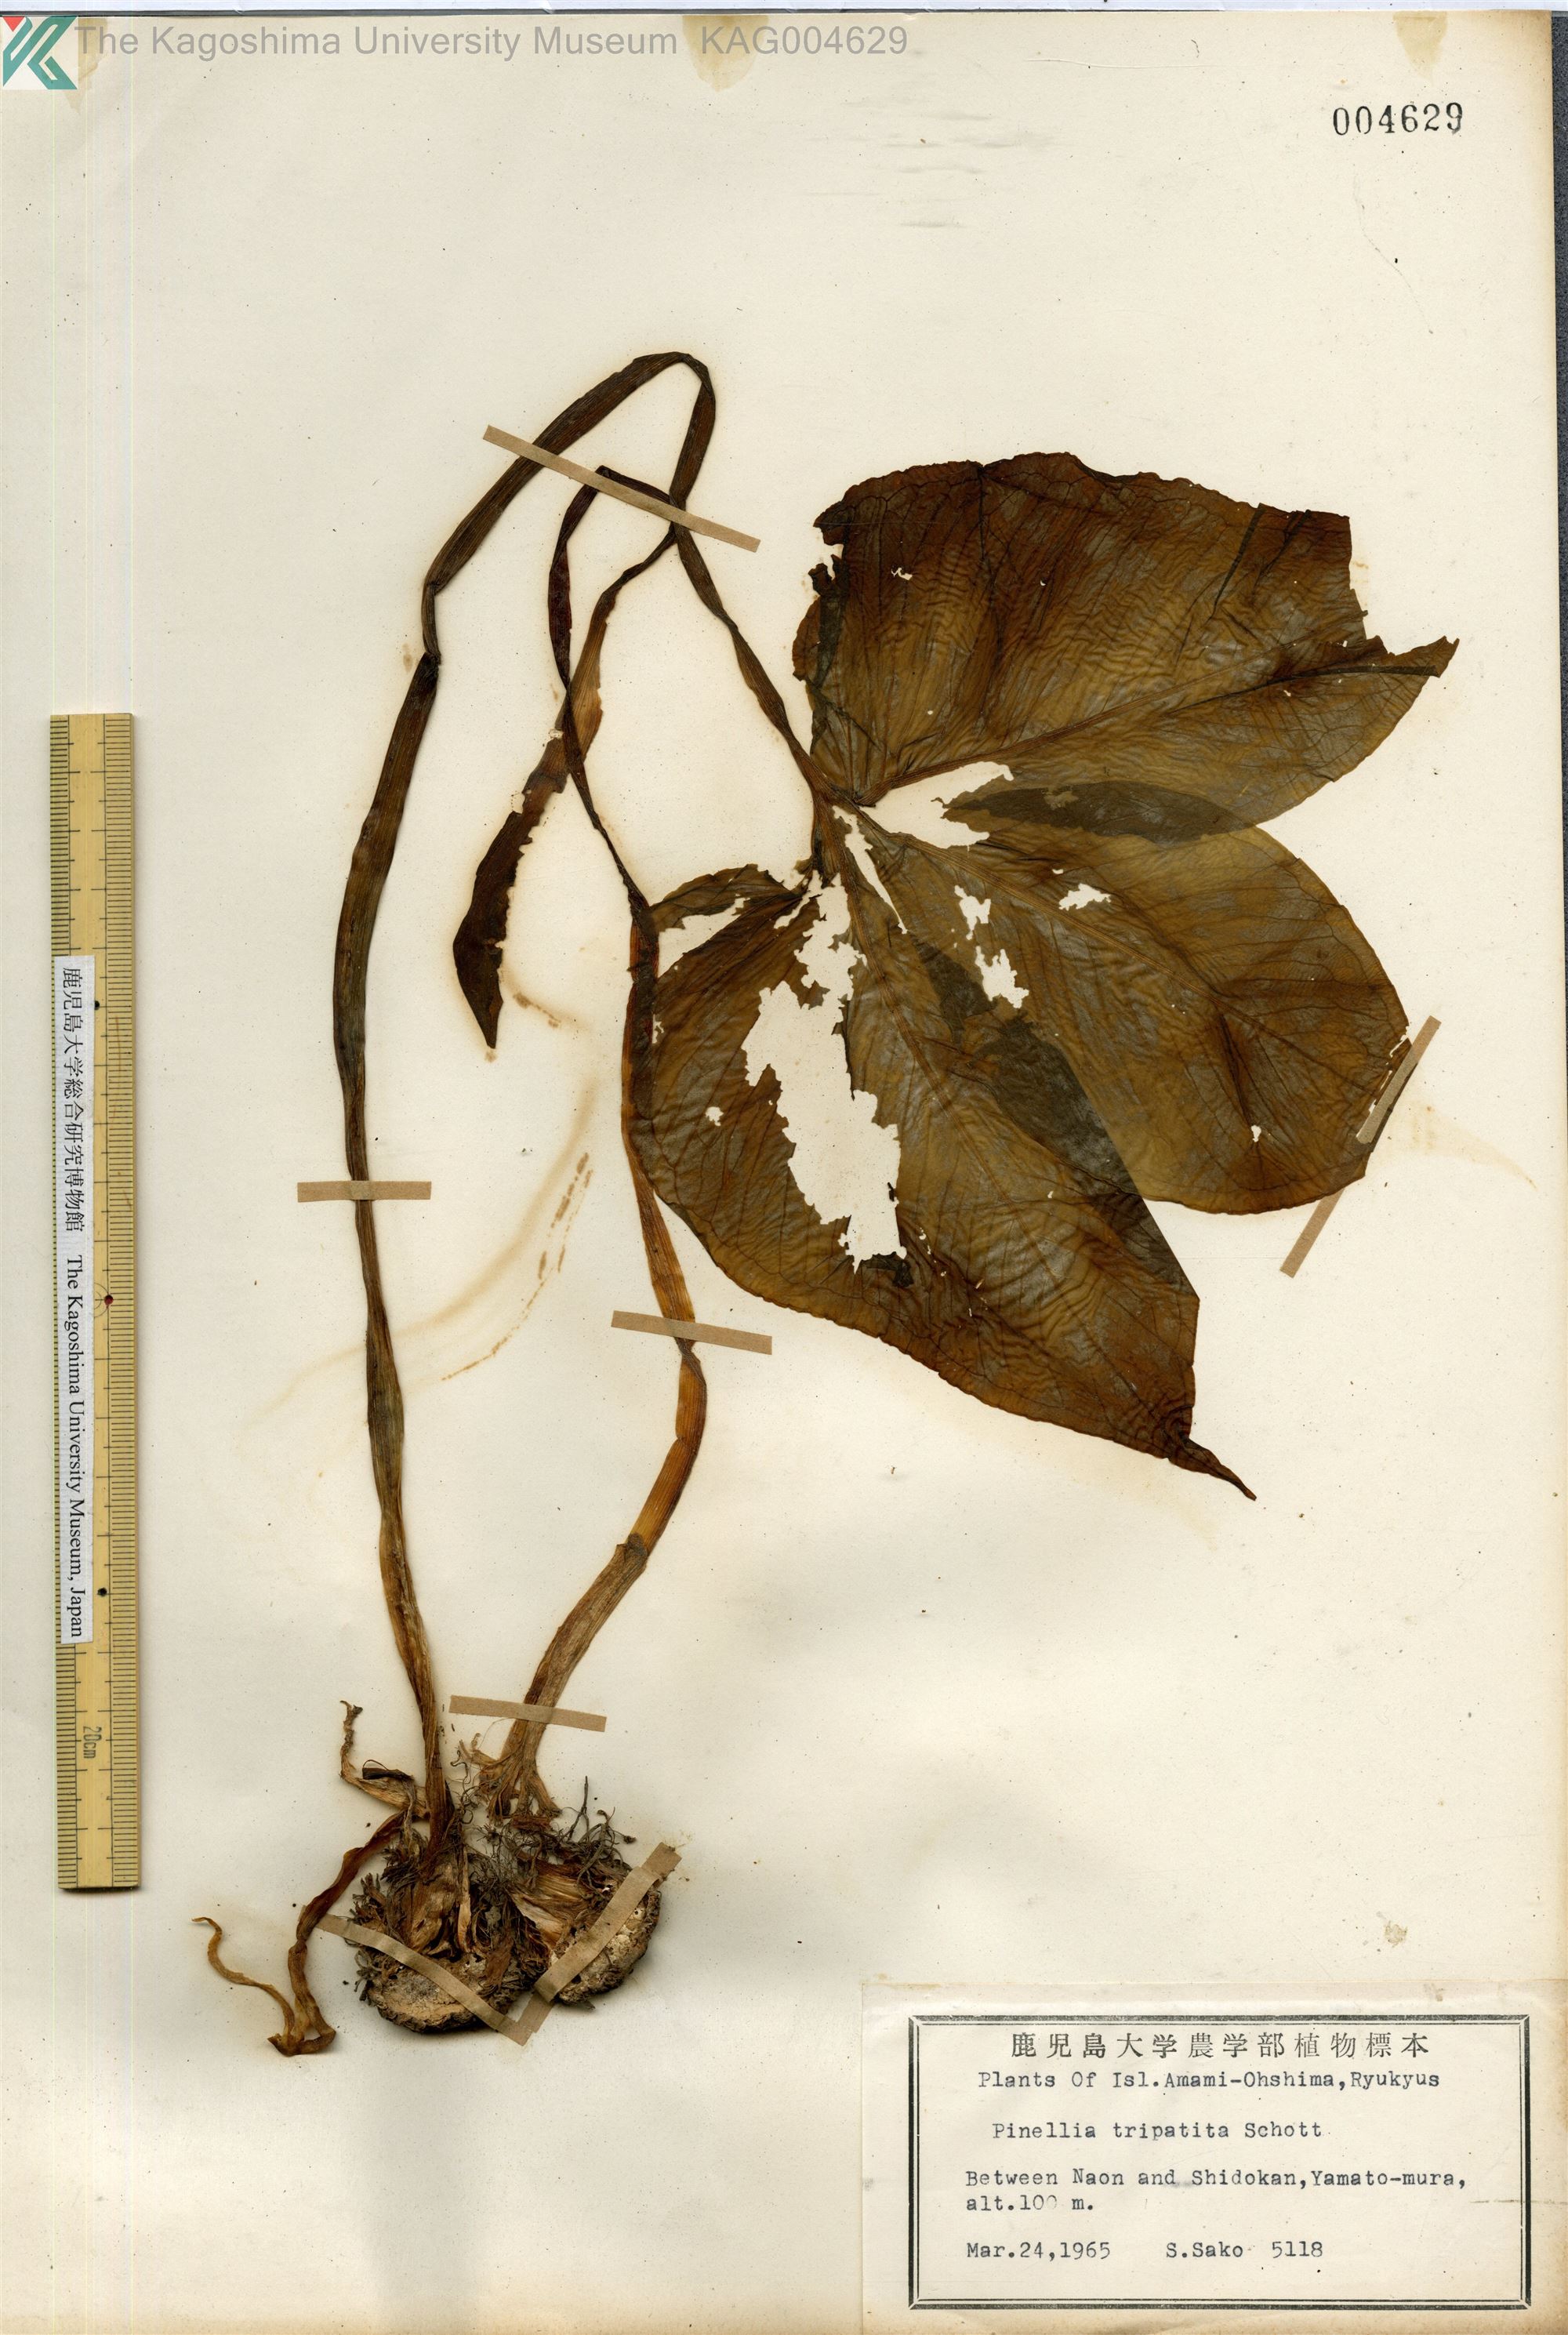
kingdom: Plantae
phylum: Tracheophyta
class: Liliopsida
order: Alismatales
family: Araceae
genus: Pinellia
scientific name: Pinellia tripartita
